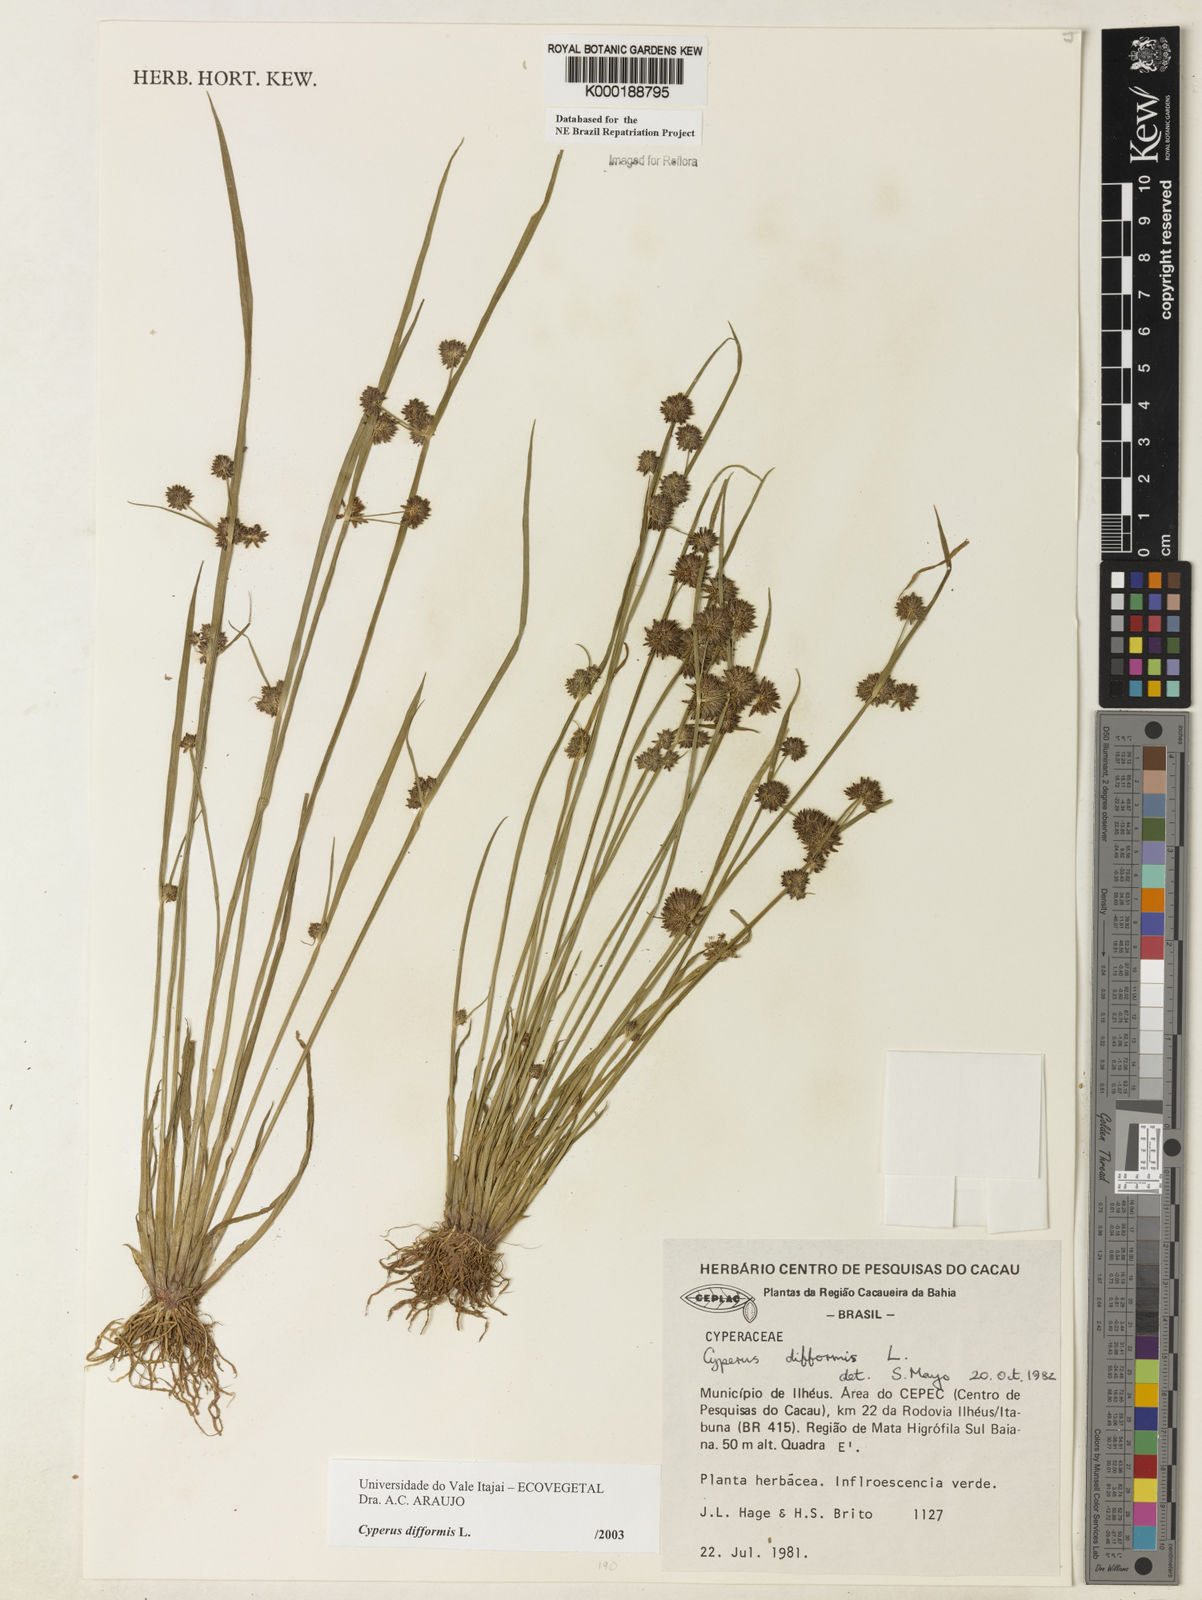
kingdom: Plantae
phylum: Tracheophyta
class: Liliopsida
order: Poales
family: Cyperaceae
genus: Cyperus
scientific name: Cyperus difformis
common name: Variable flatsedge
